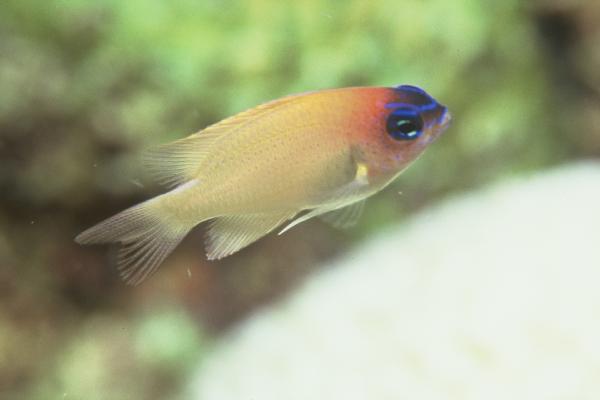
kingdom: Animalia
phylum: Chordata
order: Perciformes
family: Pomacentridae
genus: Chrysiptera
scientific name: Chrysiptera rex
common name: King demoiselle
